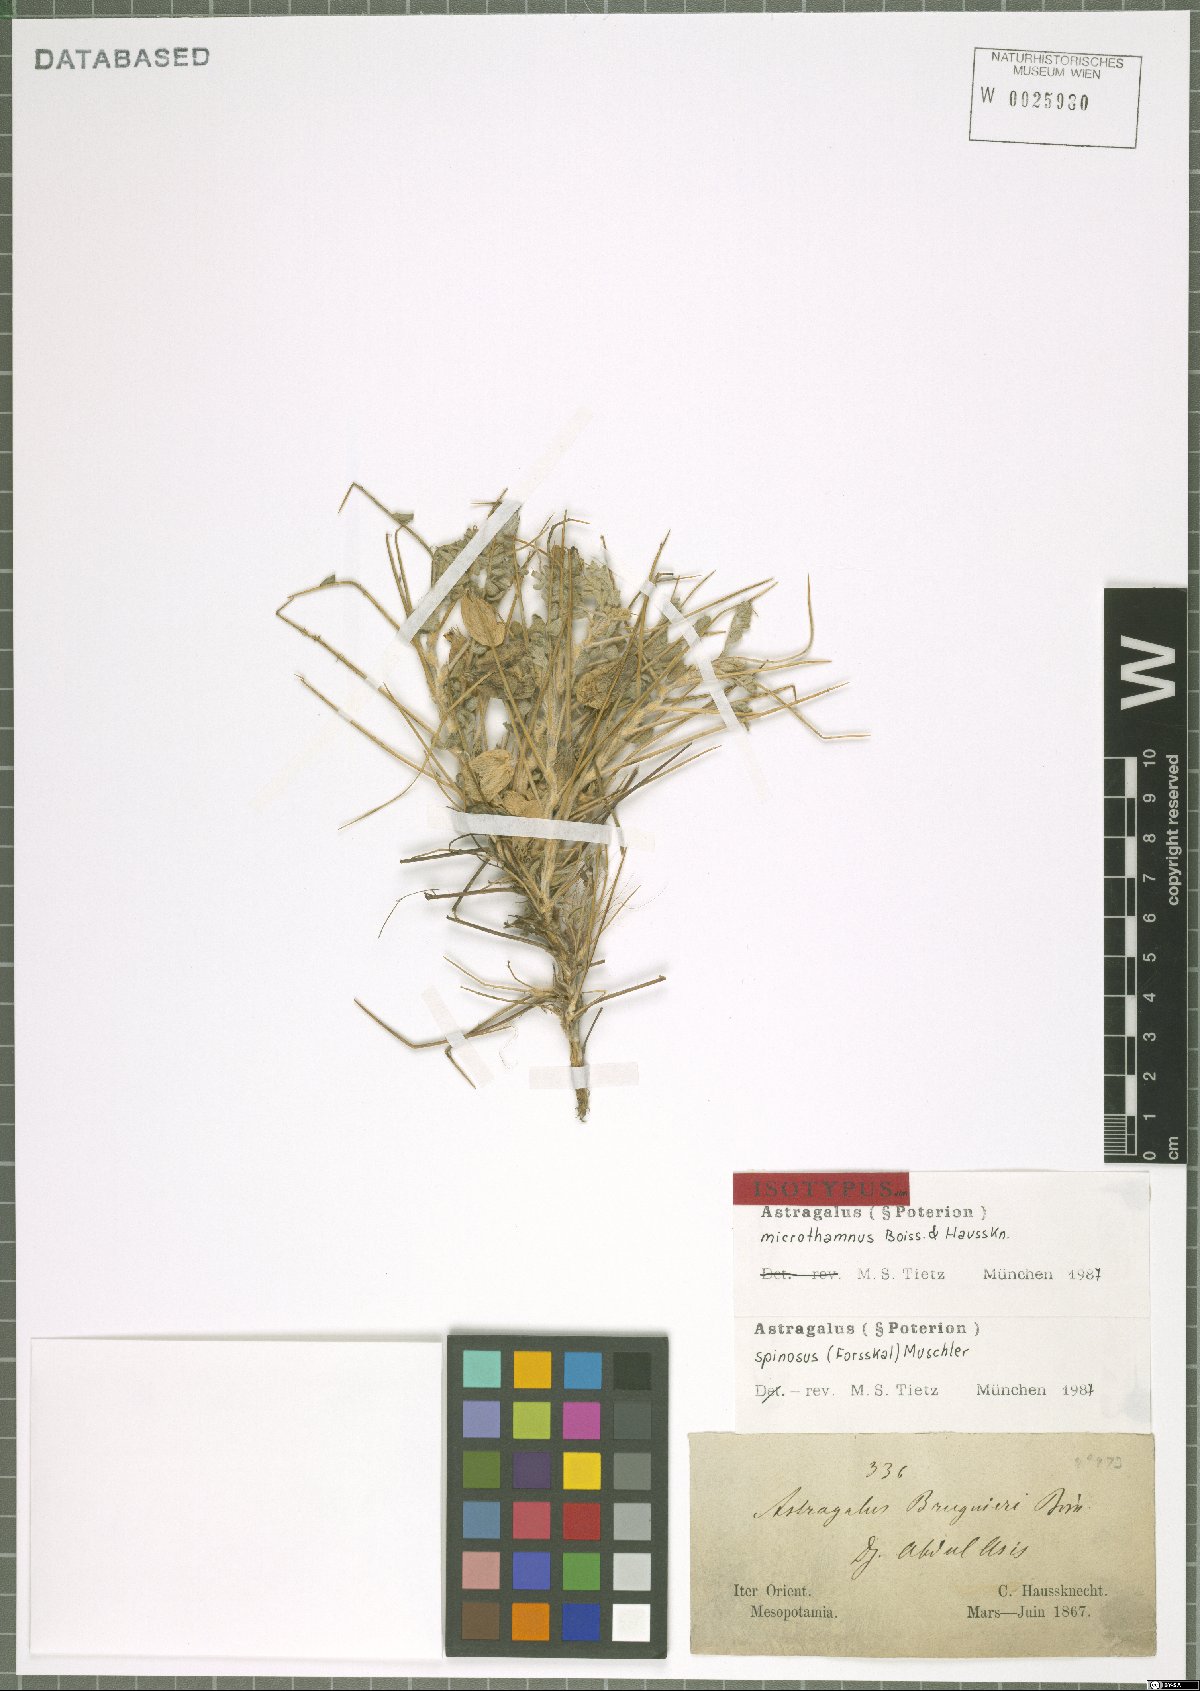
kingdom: Plantae
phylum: Tracheophyta
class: Magnoliopsida
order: Fabales
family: Fabaceae
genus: Astragalus
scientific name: Astragalus spinosus
